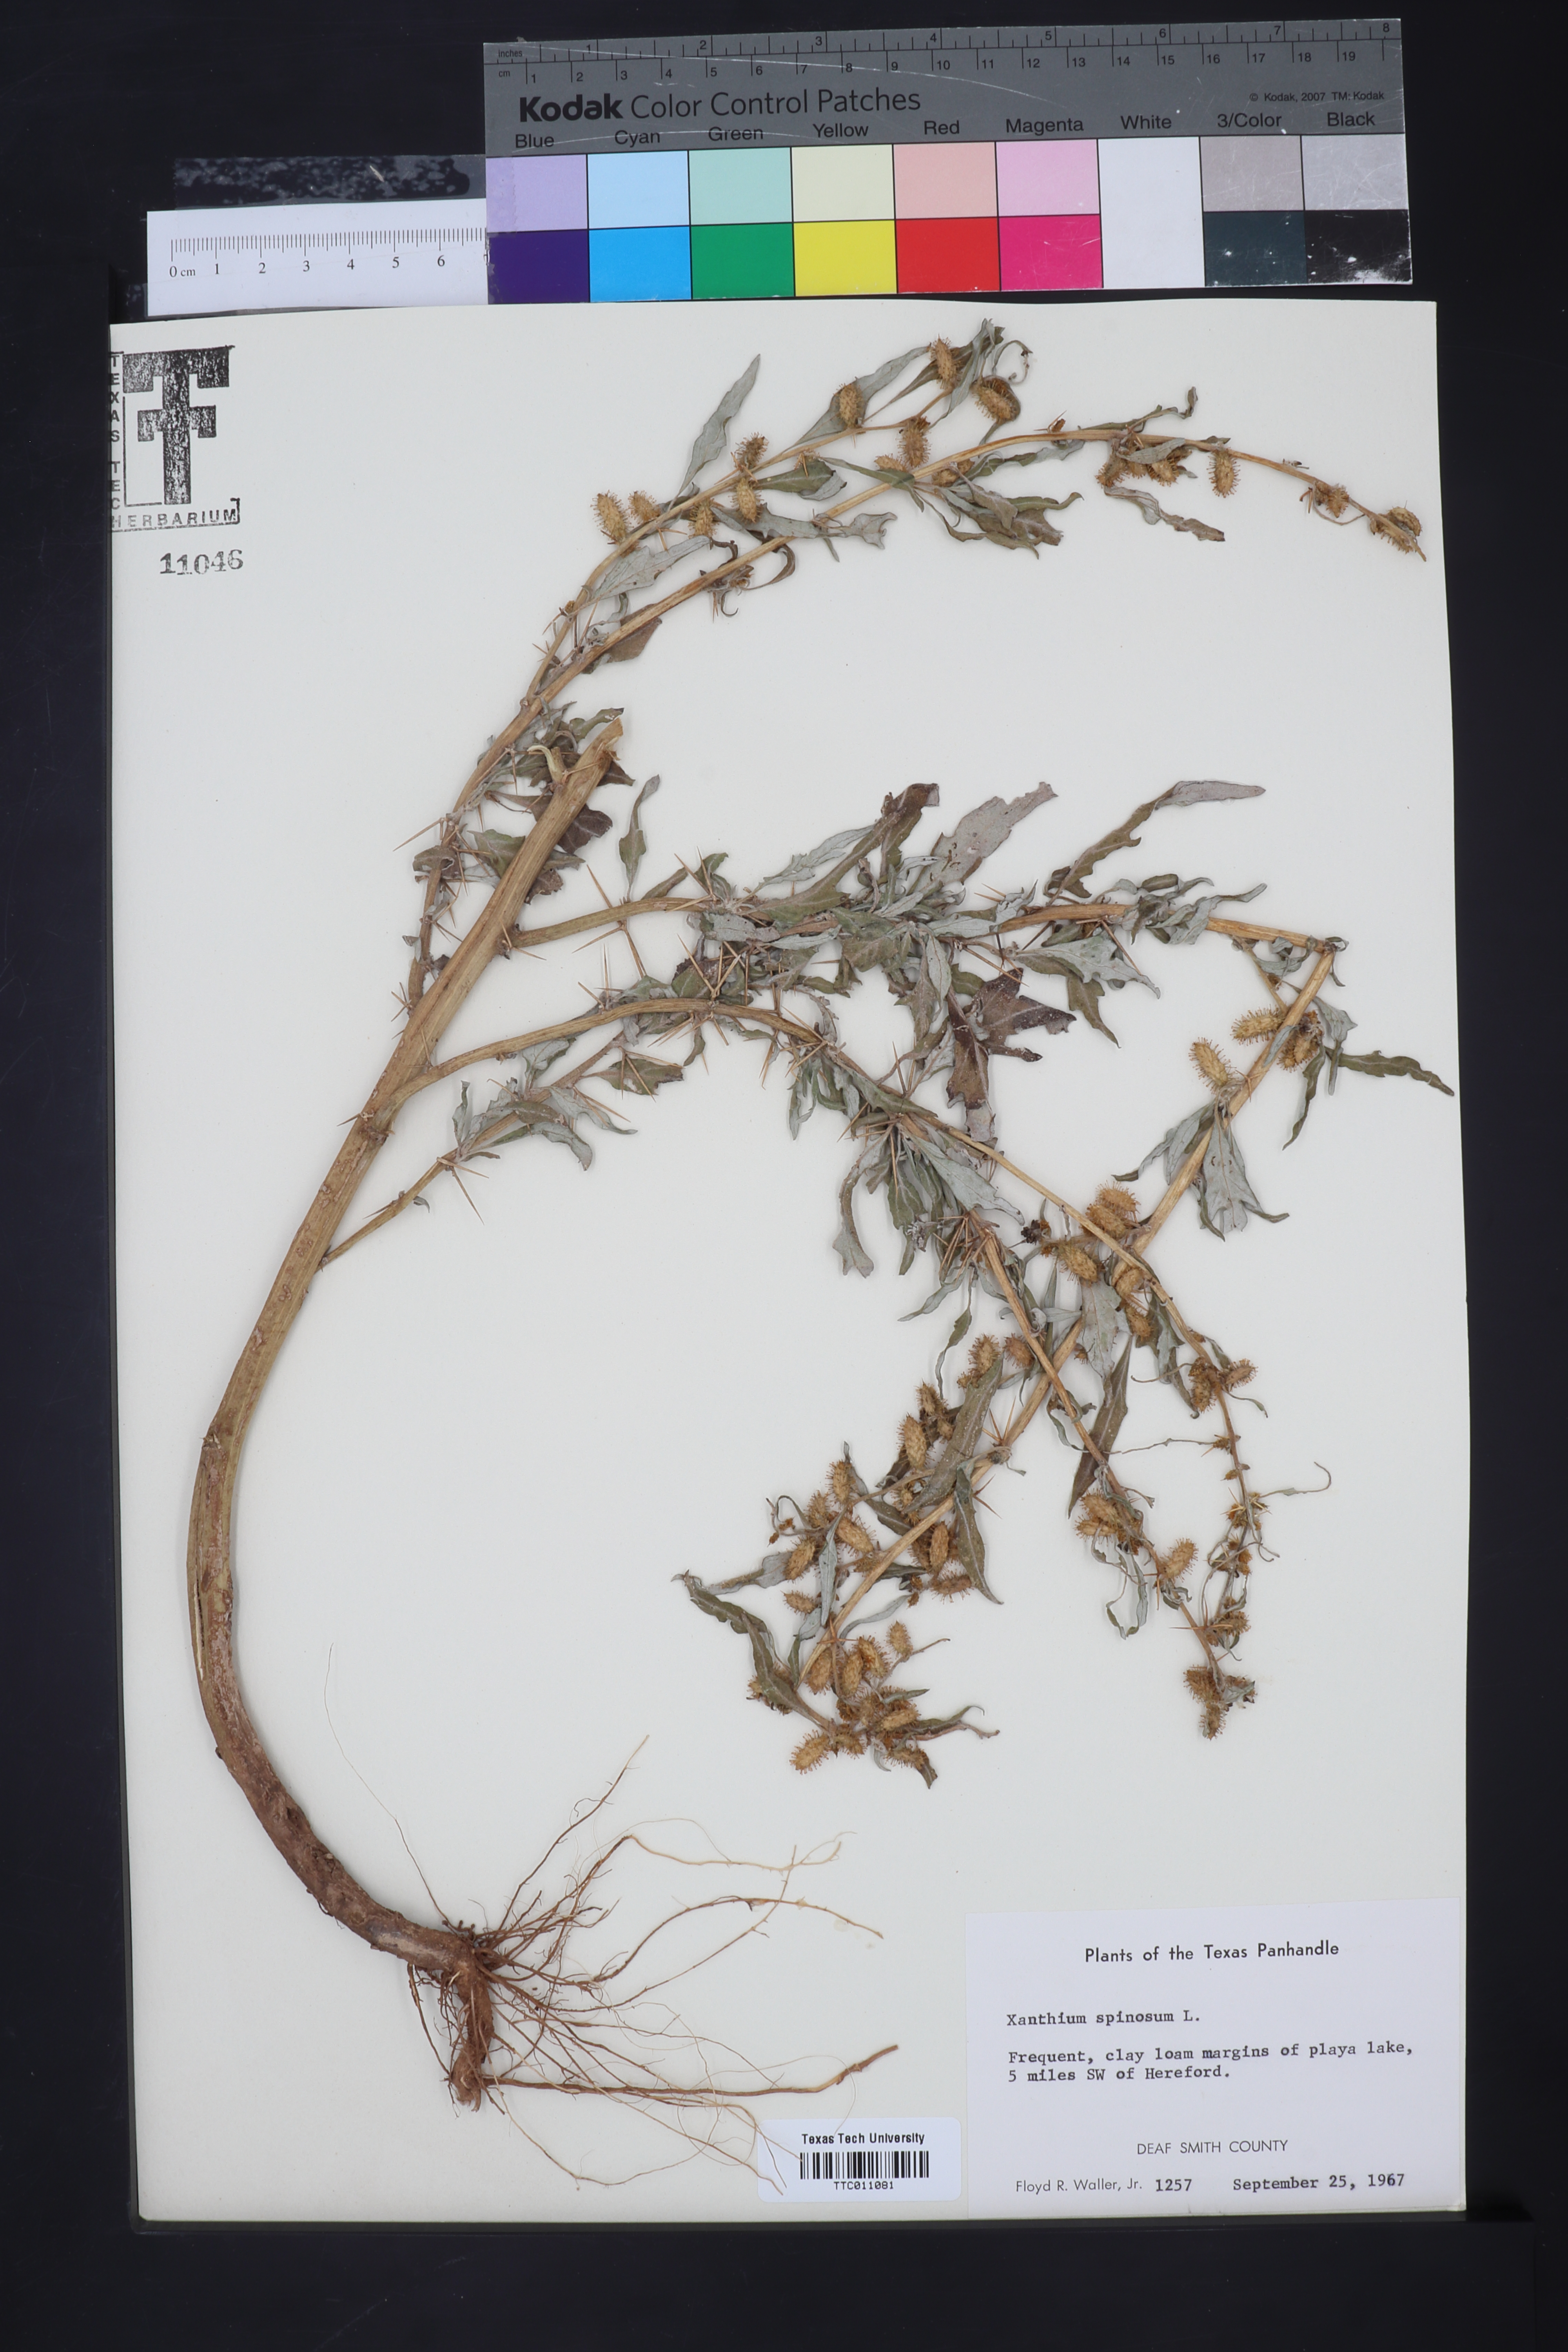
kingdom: Plantae
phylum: Tracheophyta
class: Magnoliopsida
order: Asterales
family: Asteraceae
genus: Xanthium
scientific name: Xanthium spinosum
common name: Spiny cocklebur
